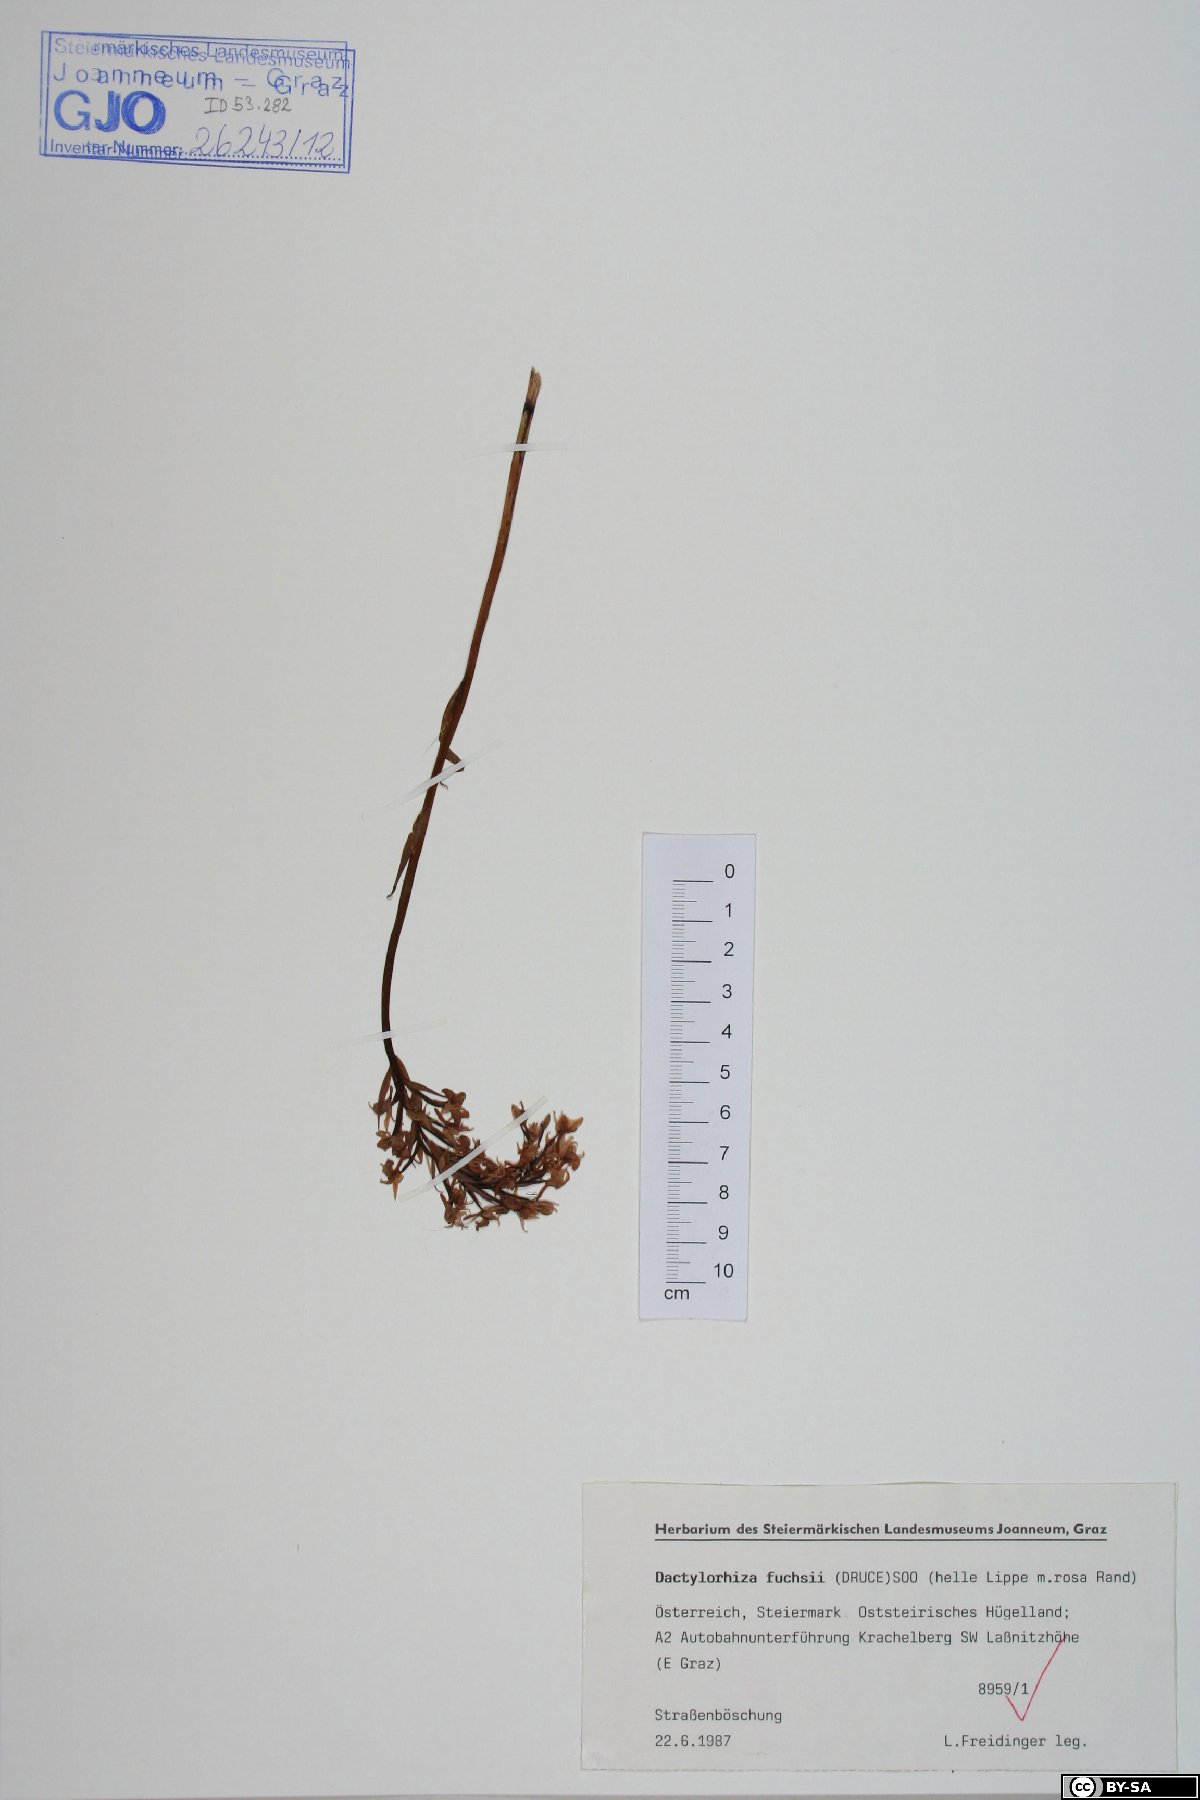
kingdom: Plantae
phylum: Tracheophyta
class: Liliopsida
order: Asparagales
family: Orchidaceae
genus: Dactylorhiza
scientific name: Dactylorhiza maculata
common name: Heath spotted-orchid
